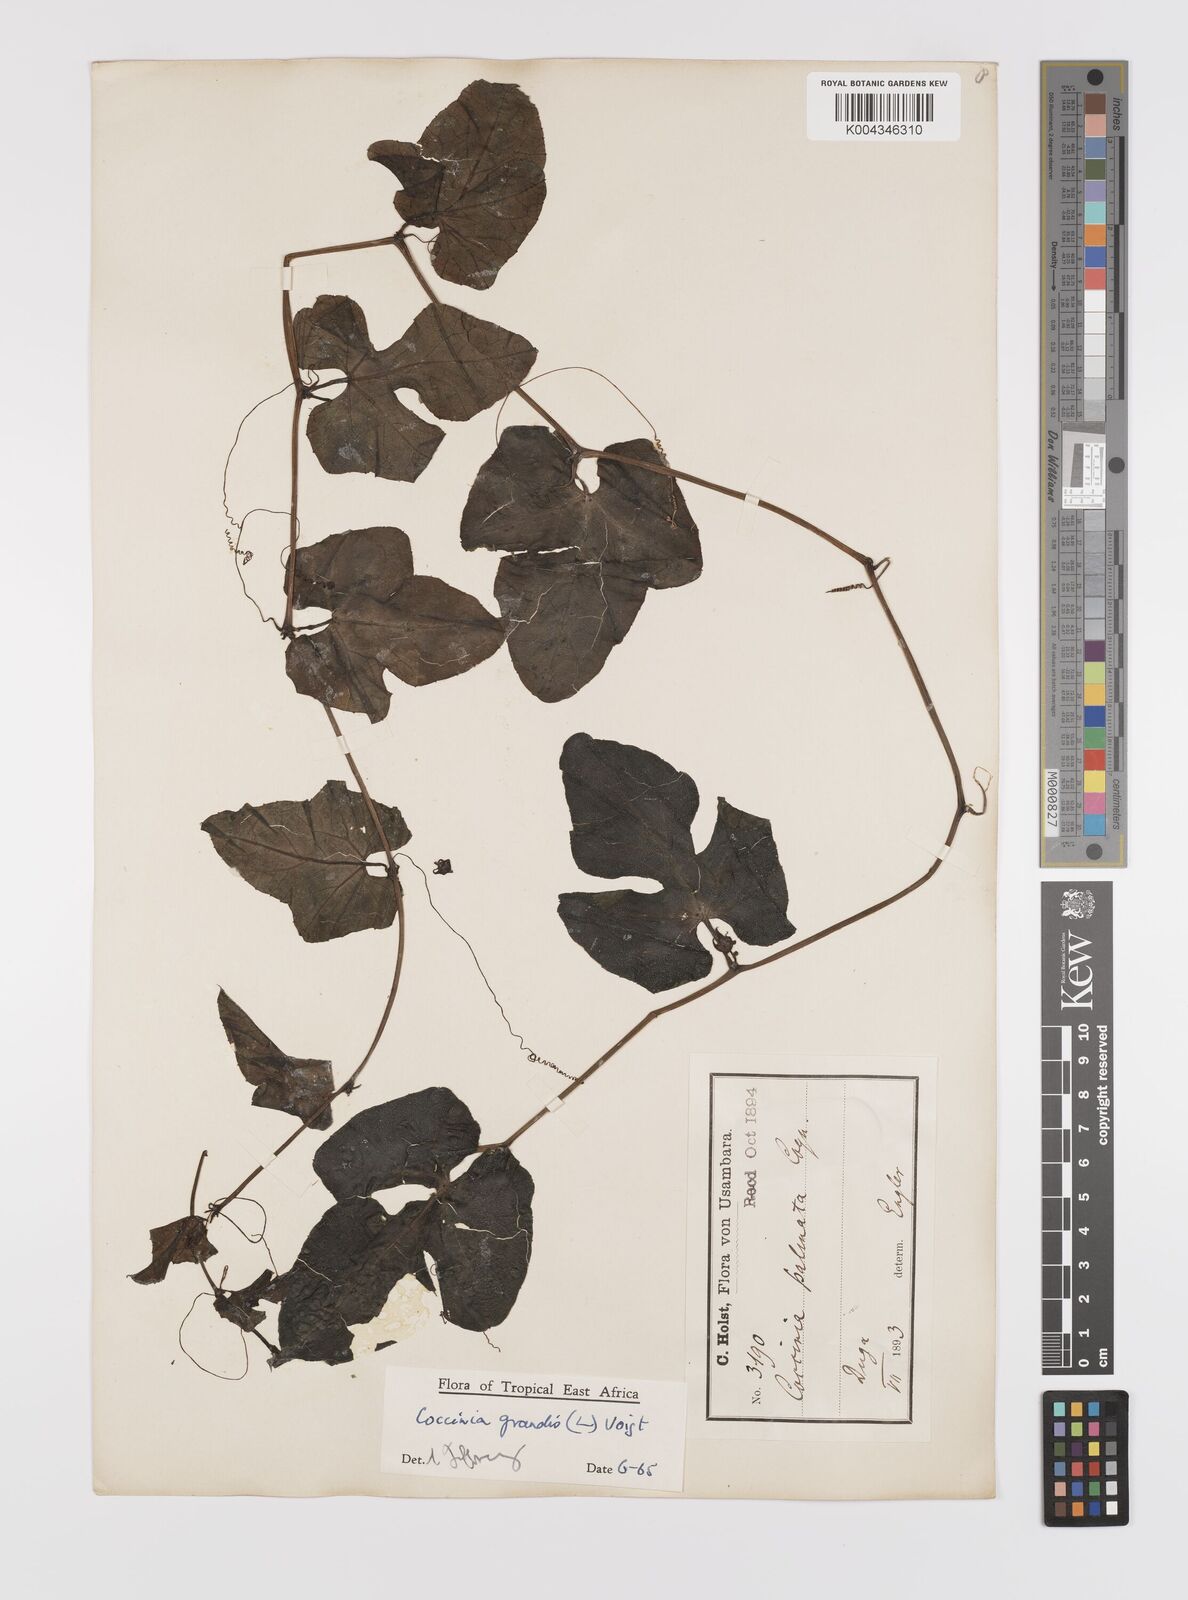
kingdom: Plantae
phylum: Tracheophyta
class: Magnoliopsida
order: Cucurbitales
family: Cucurbitaceae
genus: Coccinia
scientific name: Coccinia grandis
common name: Ivy gourd
